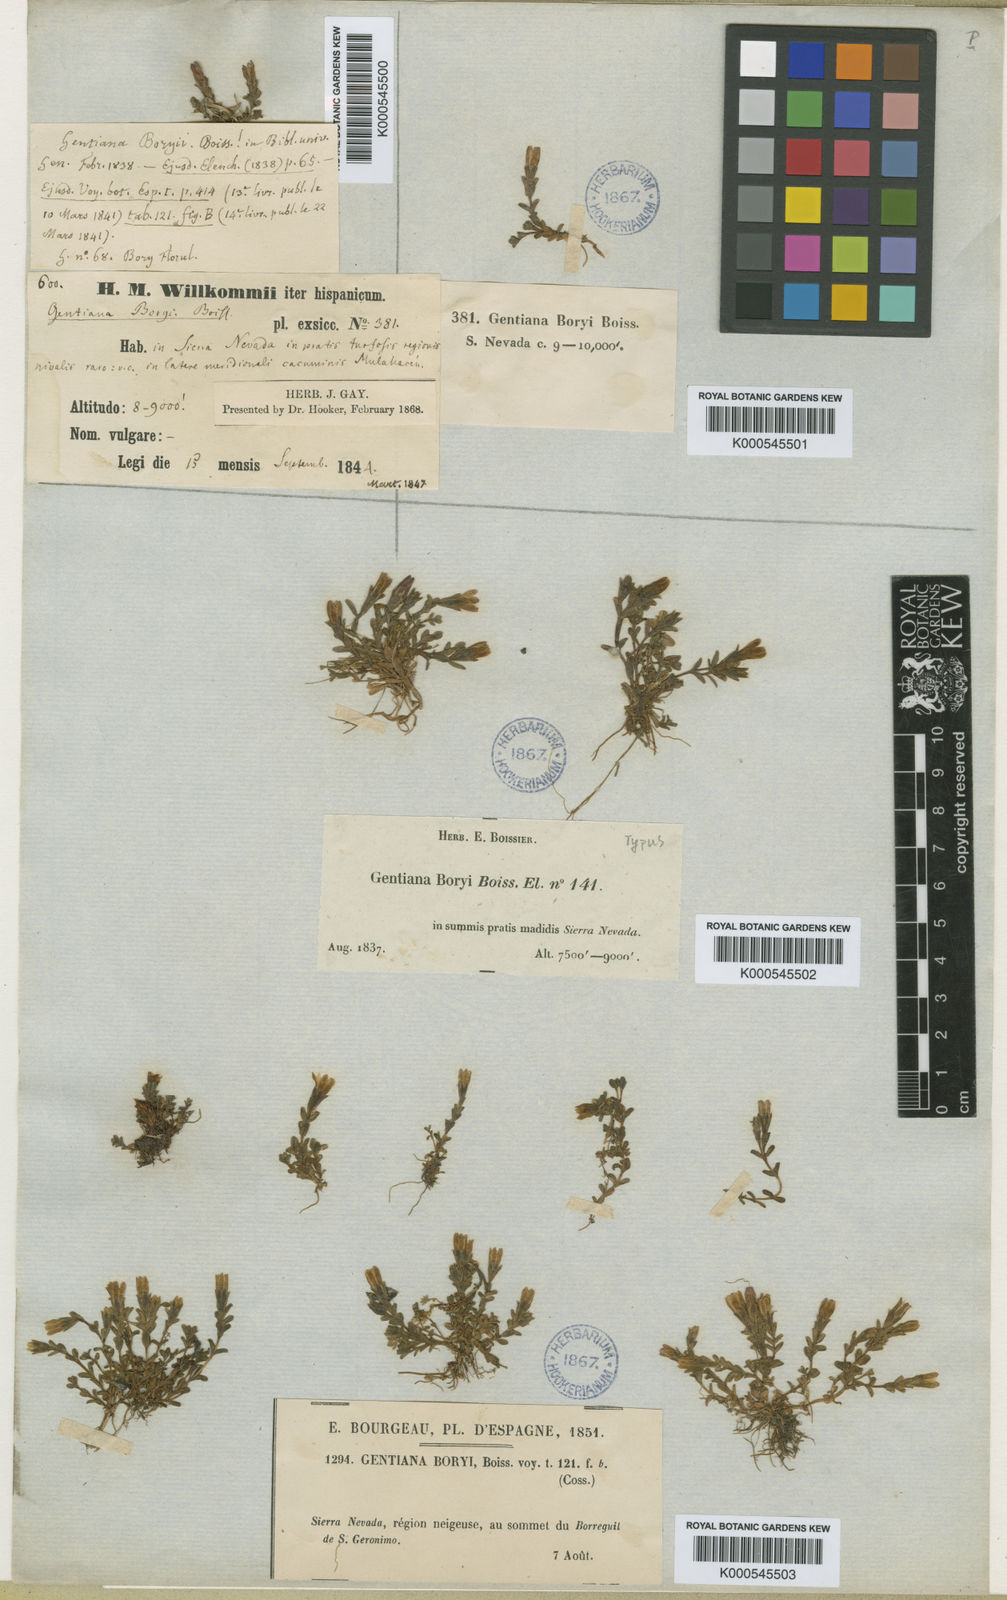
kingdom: Plantae
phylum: Tracheophyta
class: Magnoliopsida
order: Gentianales
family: Gentianaceae
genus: Gentiana
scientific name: Gentiana boryi
